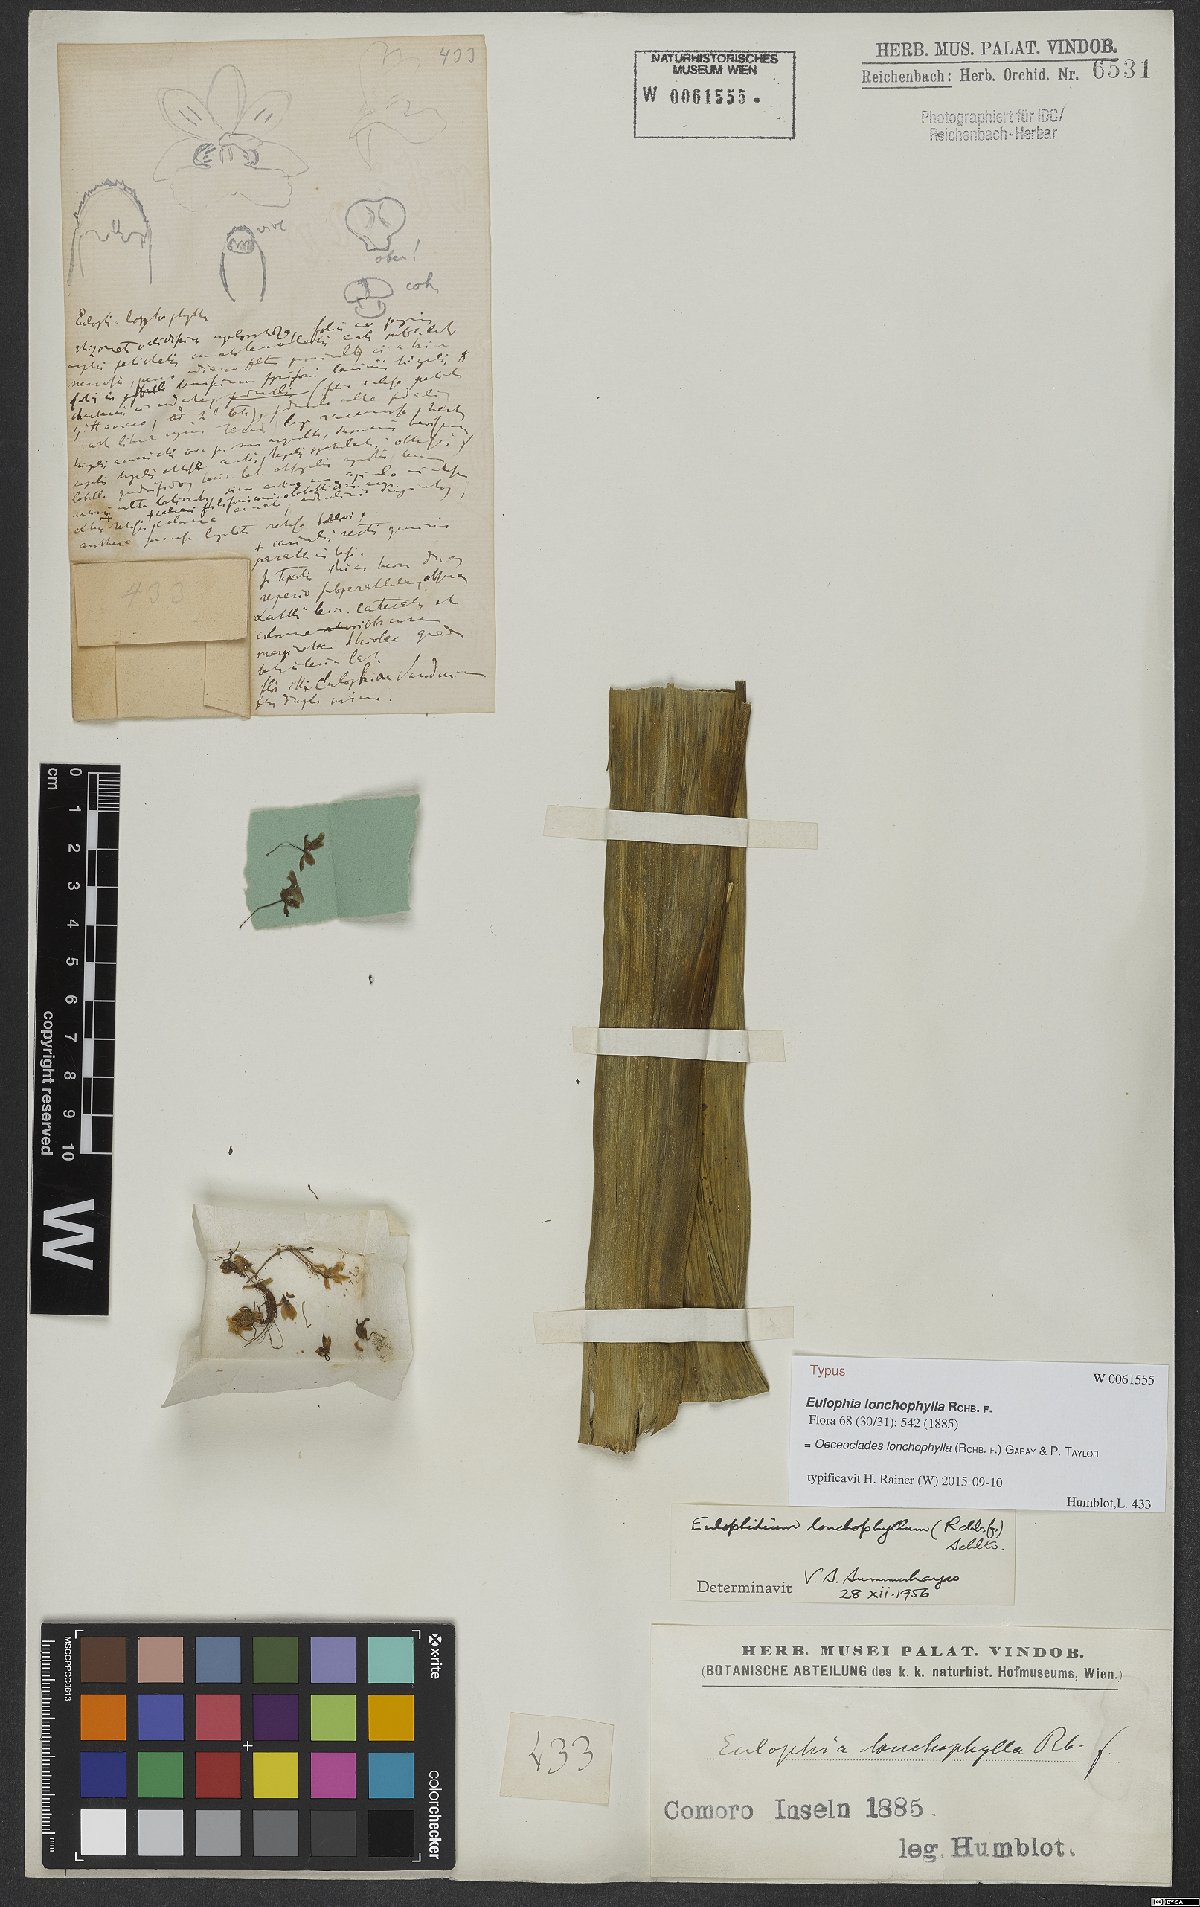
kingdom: Plantae
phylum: Tracheophyta
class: Liliopsida
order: Asparagales
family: Orchidaceae
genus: Eulophia
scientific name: Eulophia lonchophylla
